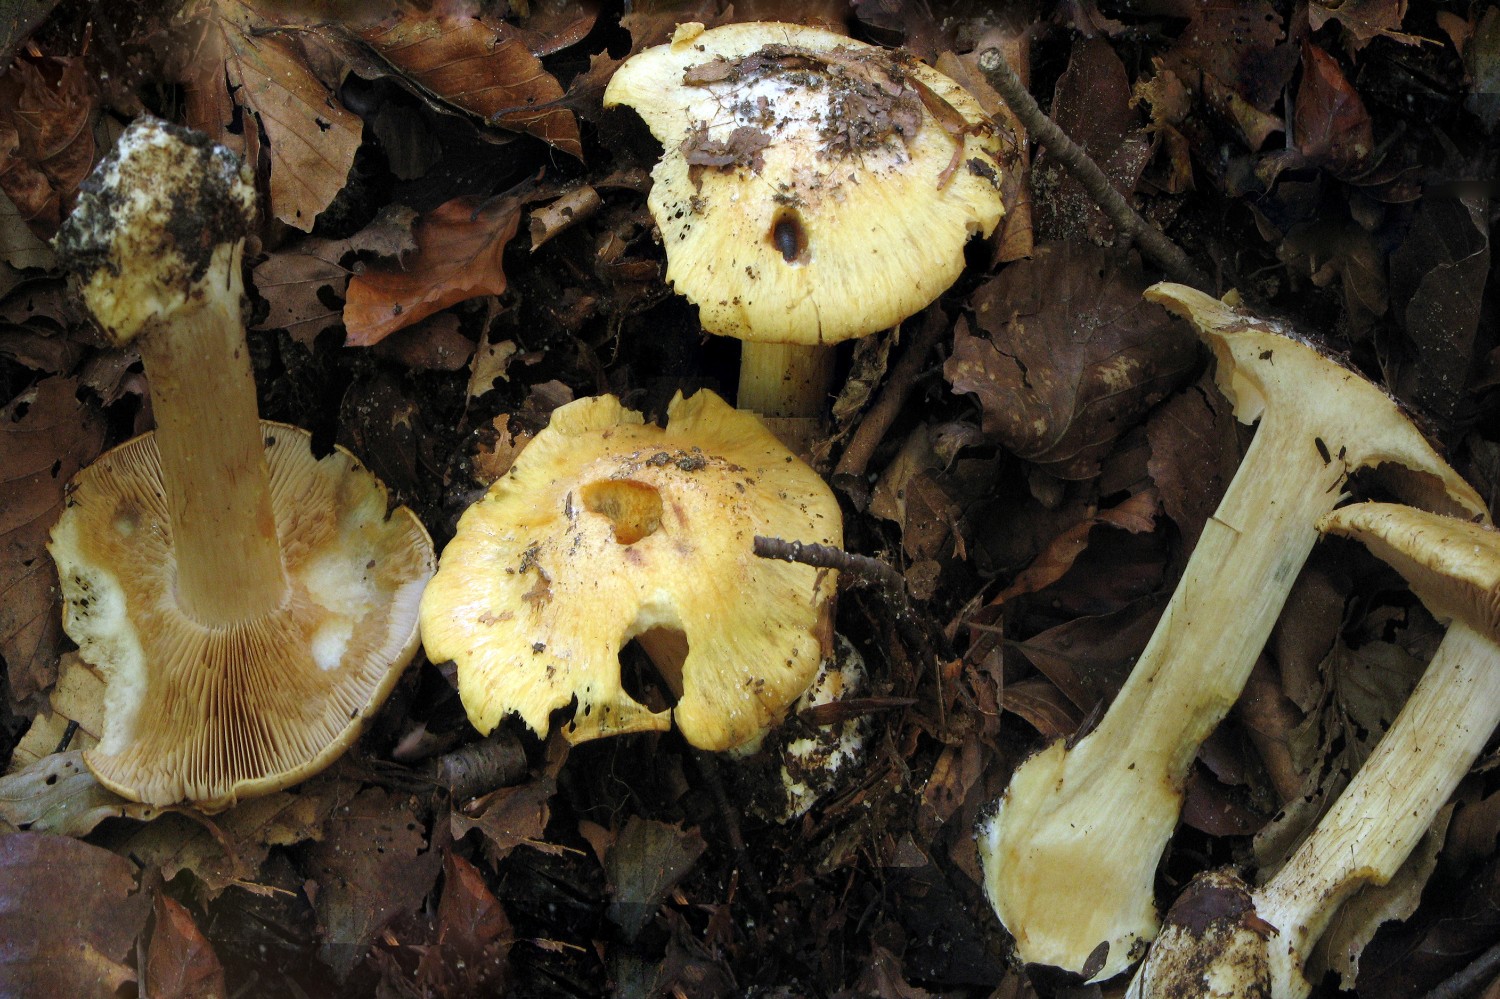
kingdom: Fungi
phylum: Basidiomycota
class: Agaricomycetes
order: Agaricales
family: Cortinariaceae
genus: Phlegmacium
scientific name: Phlegmacium xantho-ochraceum
